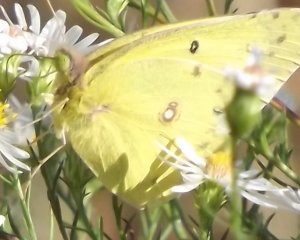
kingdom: Animalia
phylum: Arthropoda
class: Insecta
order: Lepidoptera
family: Pieridae
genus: Colias
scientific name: Colias philodice
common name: Clouded Sulphur
